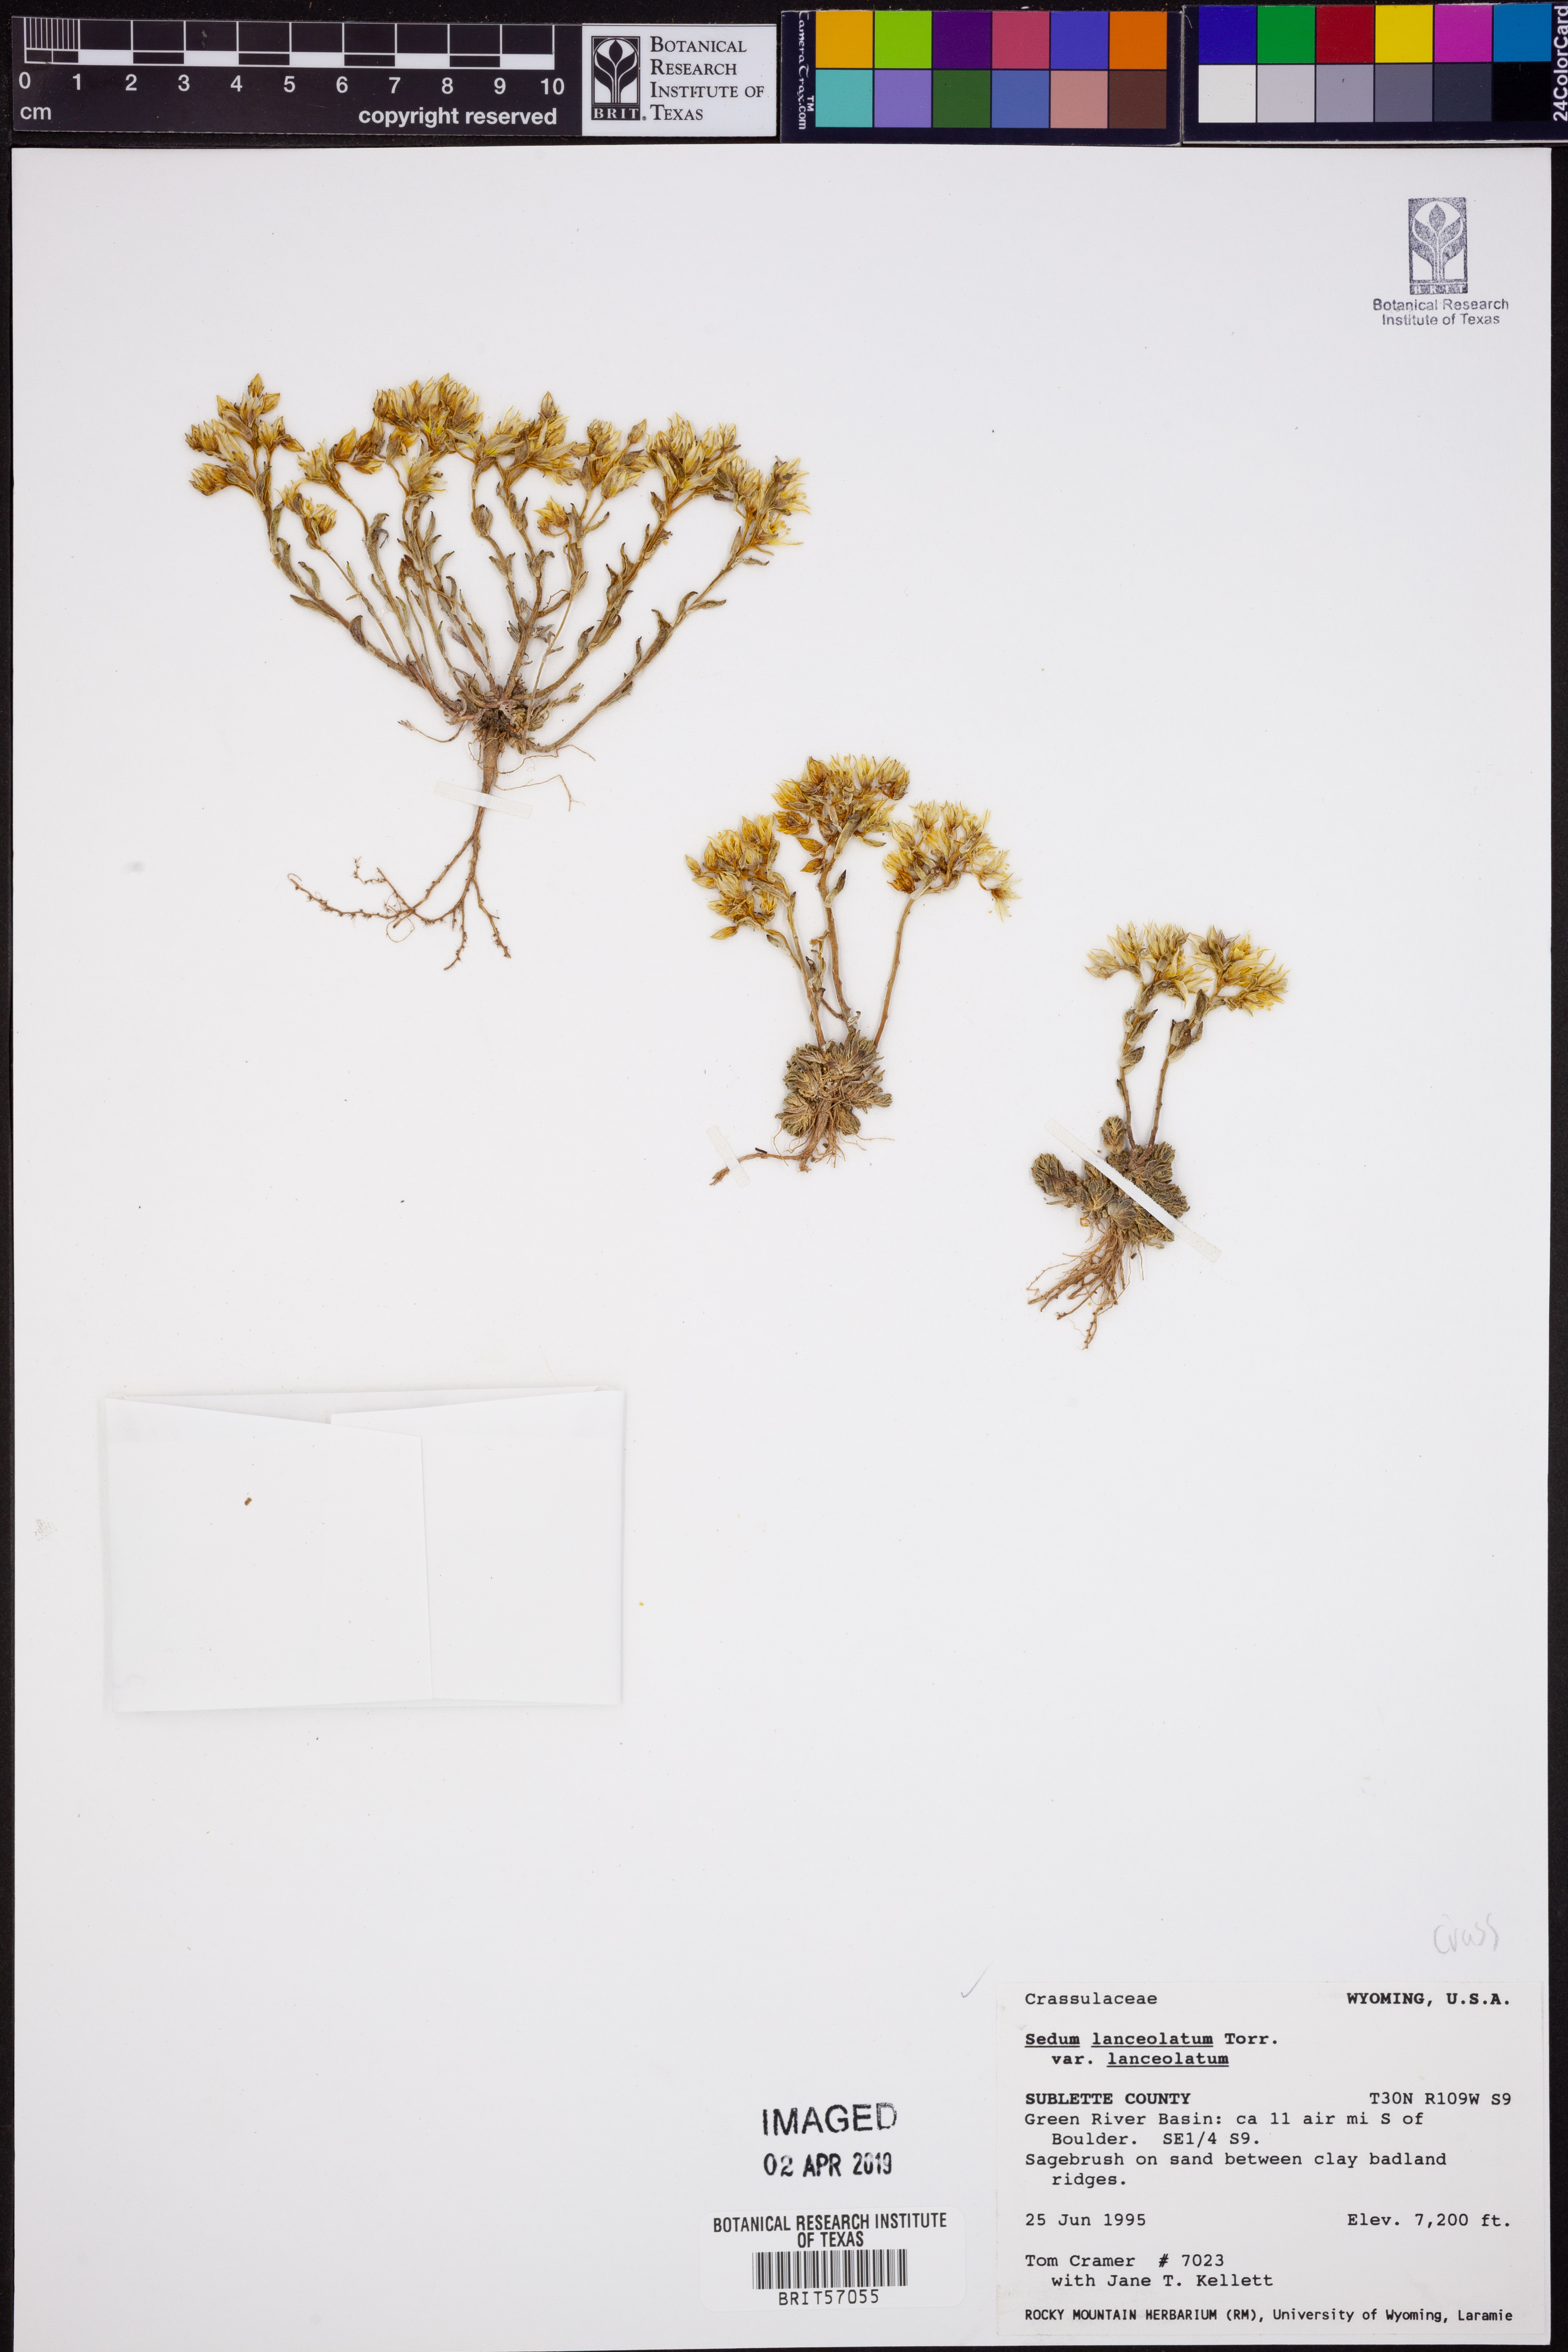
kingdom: Plantae
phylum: Tracheophyta
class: Magnoliopsida
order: Saxifragales
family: Crassulaceae
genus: Sedum
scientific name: Sedum lanceolatum
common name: Common stonecrop
